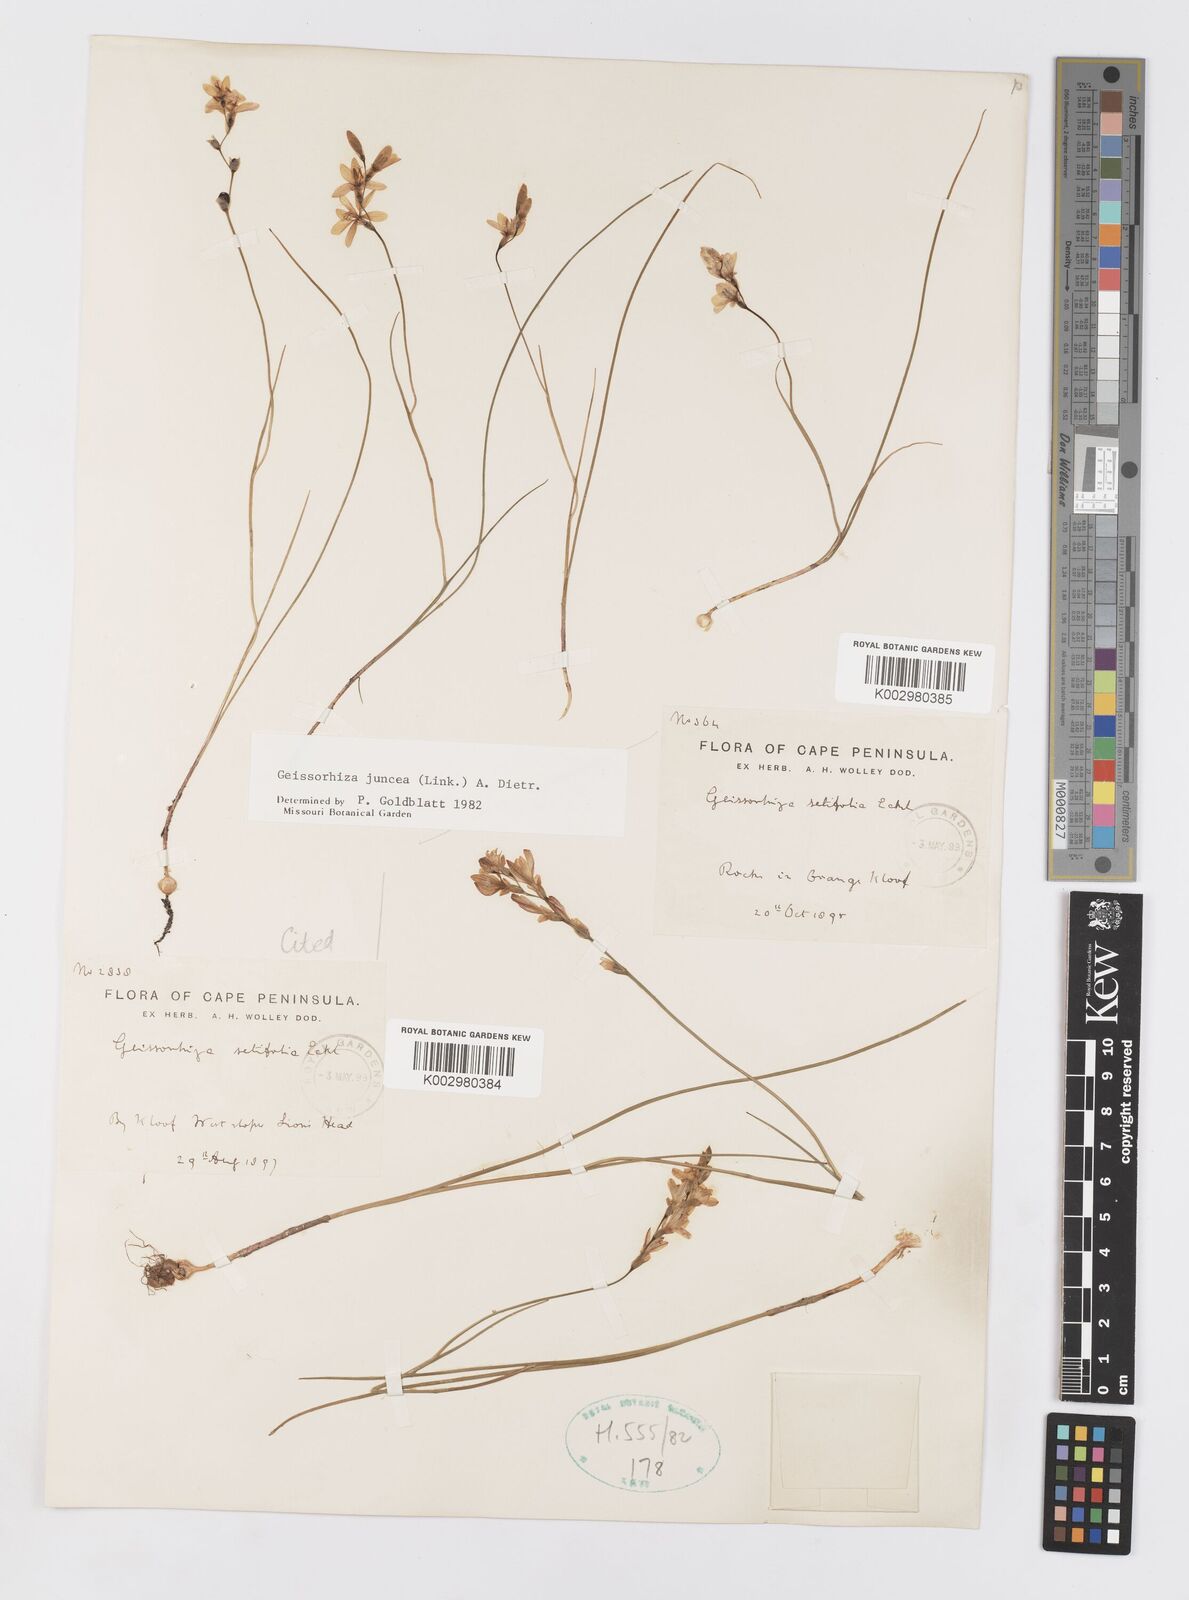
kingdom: Plantae
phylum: Tracheophyta
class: Liliopsida
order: Asparagales
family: Iridaceae
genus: Geissorhiza
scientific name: Geissorhiza juncea
